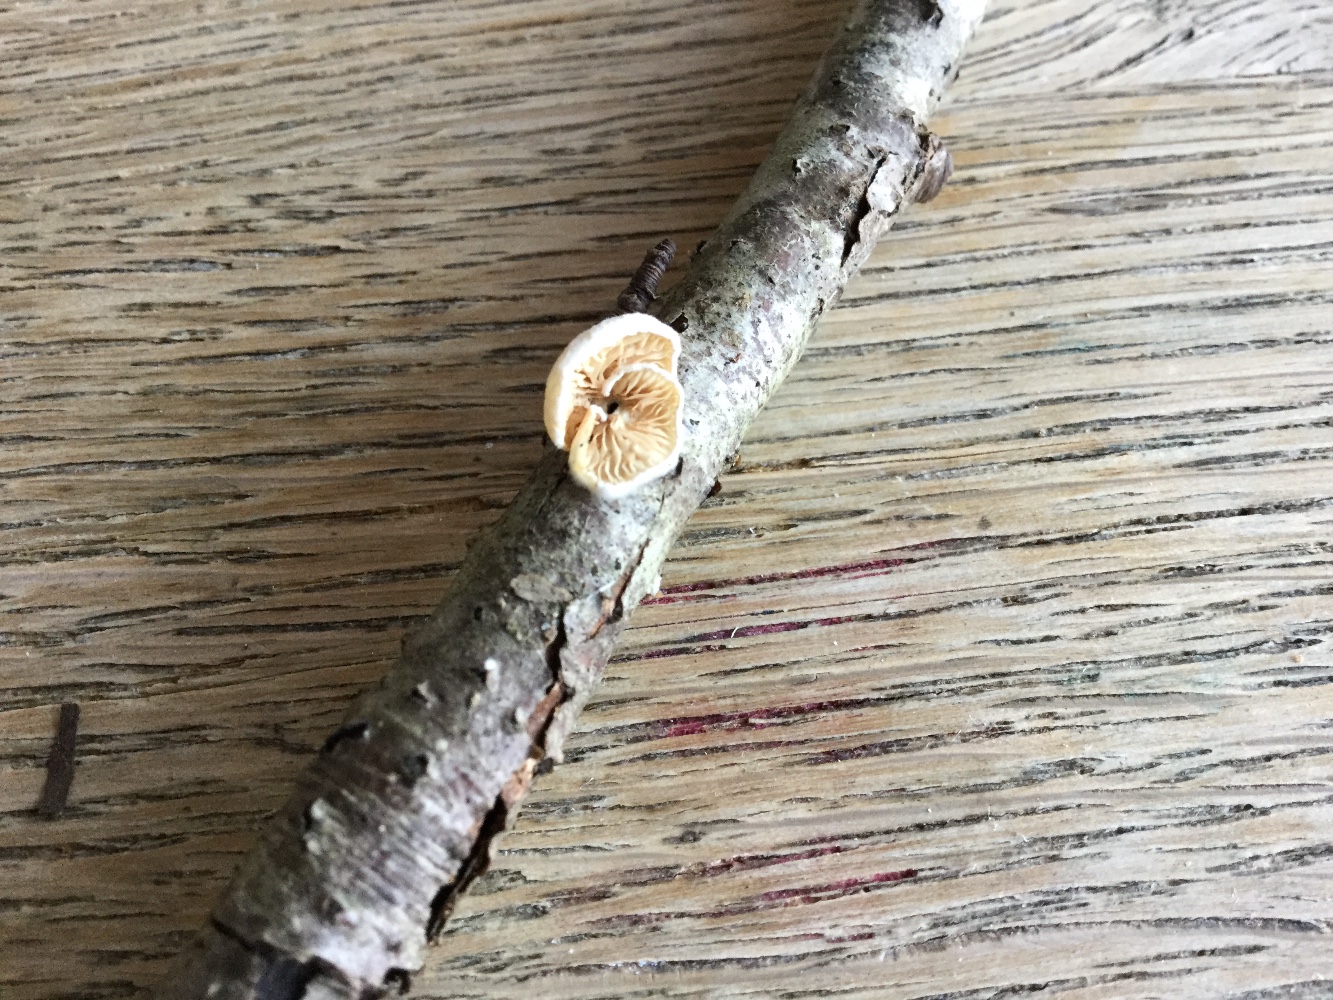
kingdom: Fungi
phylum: Basidiomycota
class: Agaricomycetes
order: Agaricales
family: Crepidotaceae
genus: Crepidotus
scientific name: Crepidotus cesatii
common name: almindelig muslingesvamp
